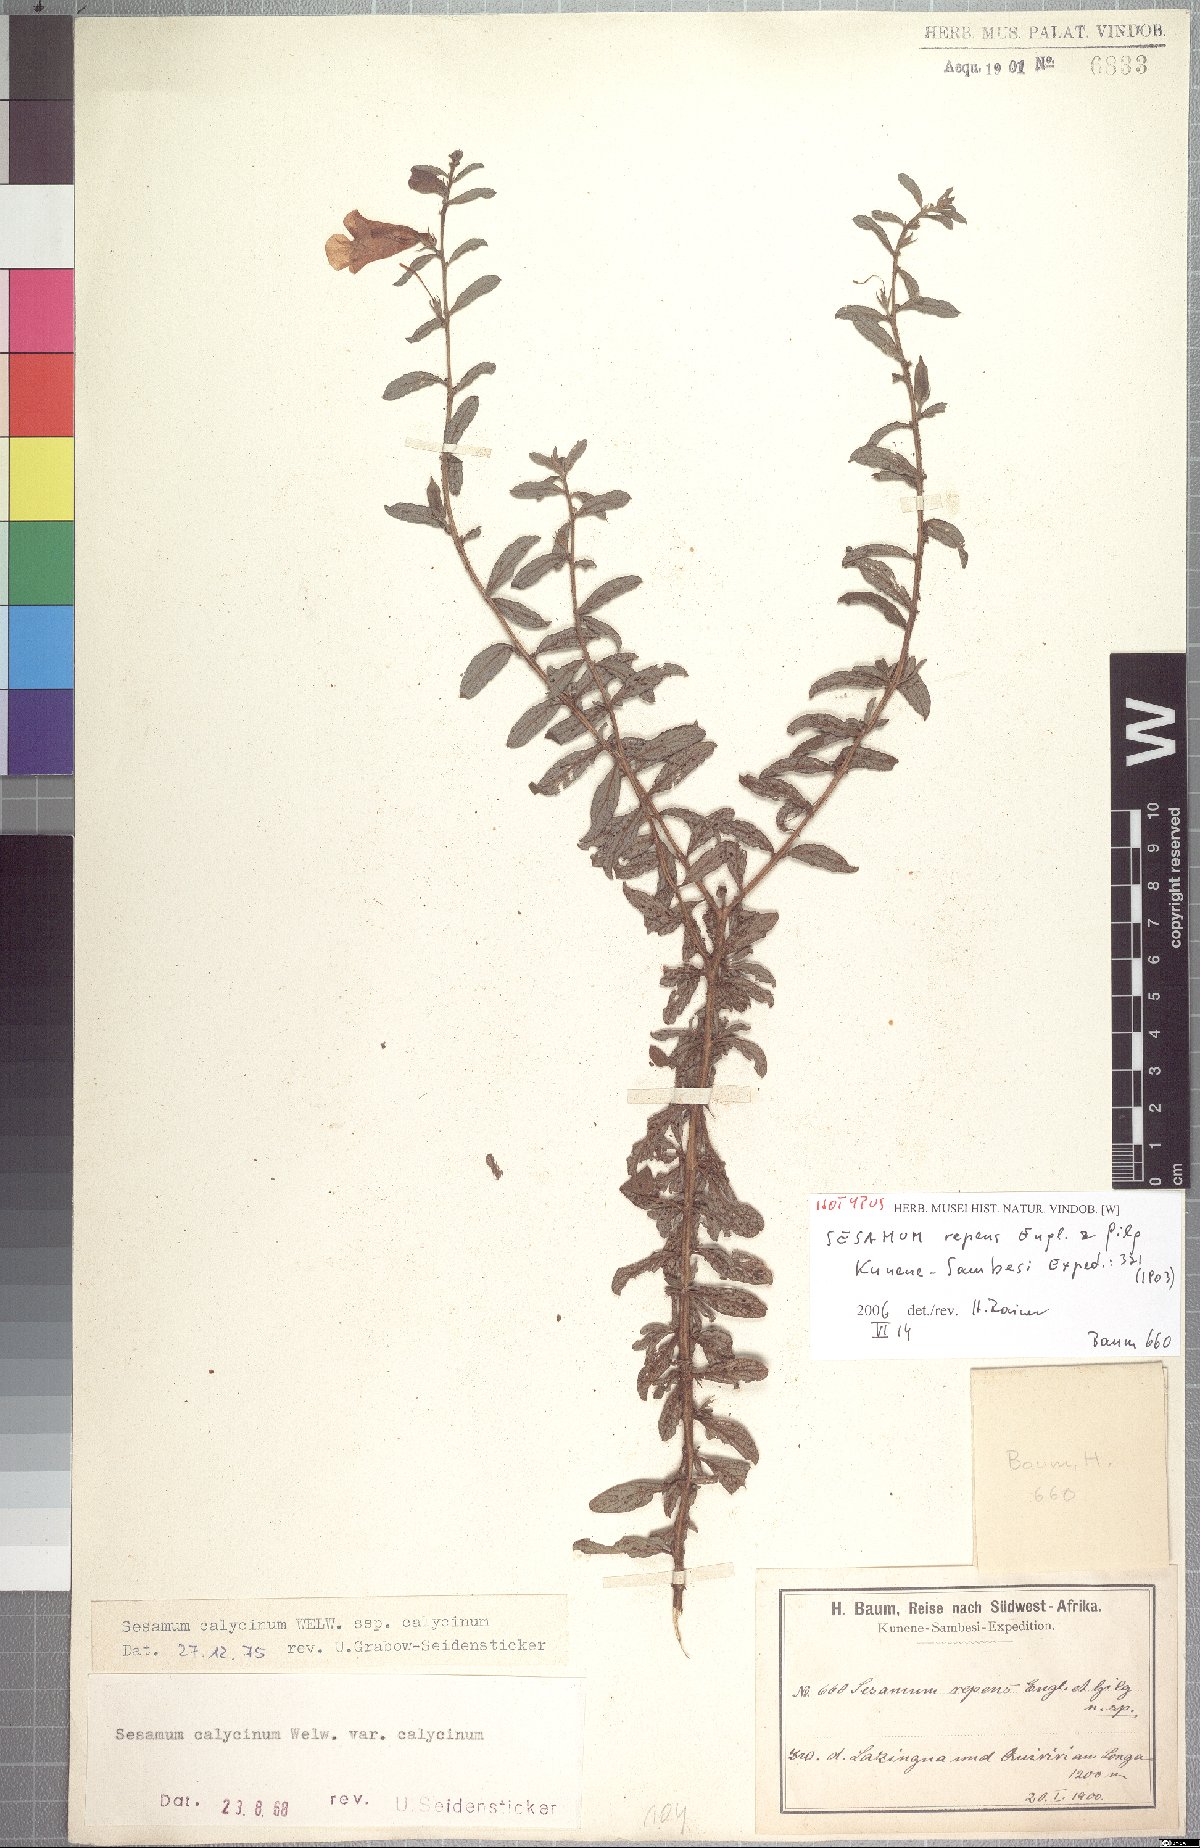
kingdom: Plantae
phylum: Tracheophyta
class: Magnoliopsida
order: Lamiales
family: Pedaliaceae
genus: Sesamum
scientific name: Sesamum calycinum
